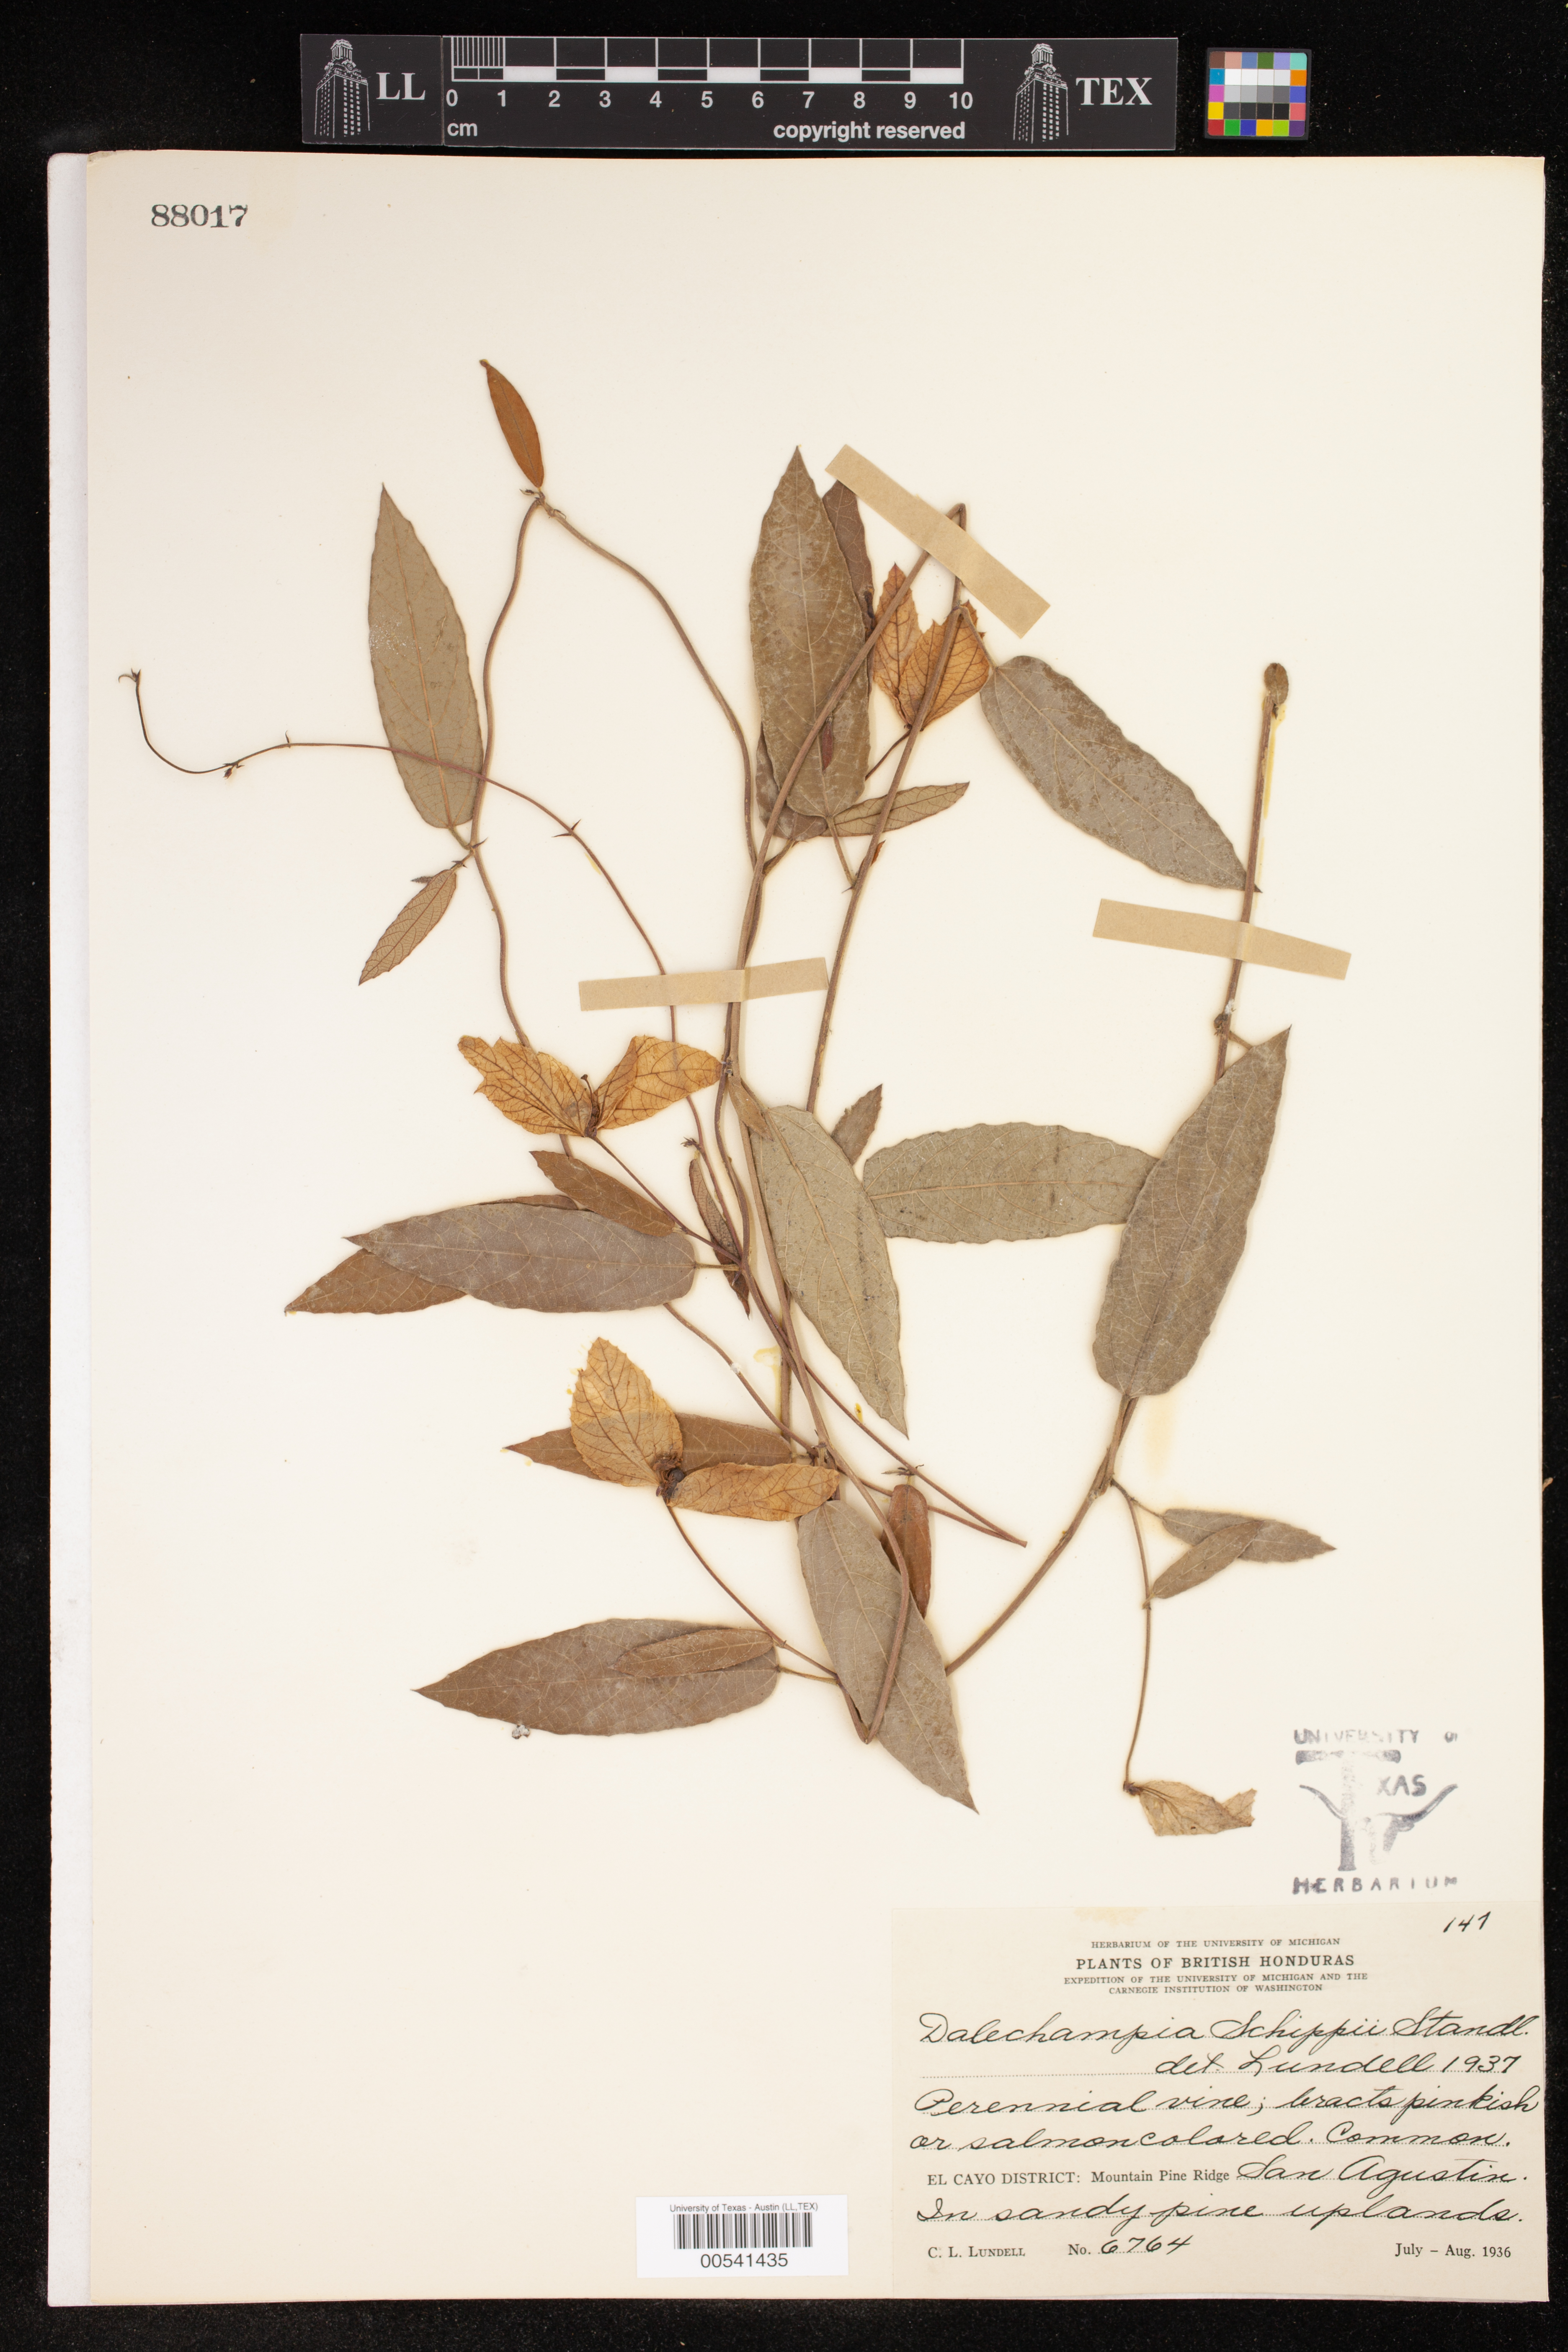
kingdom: Plantae
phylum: Tracheophyta
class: Magnoliopsida
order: Malpighiales
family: Euphorbiaceae
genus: Dalechampia
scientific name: Dalechampia schippii
